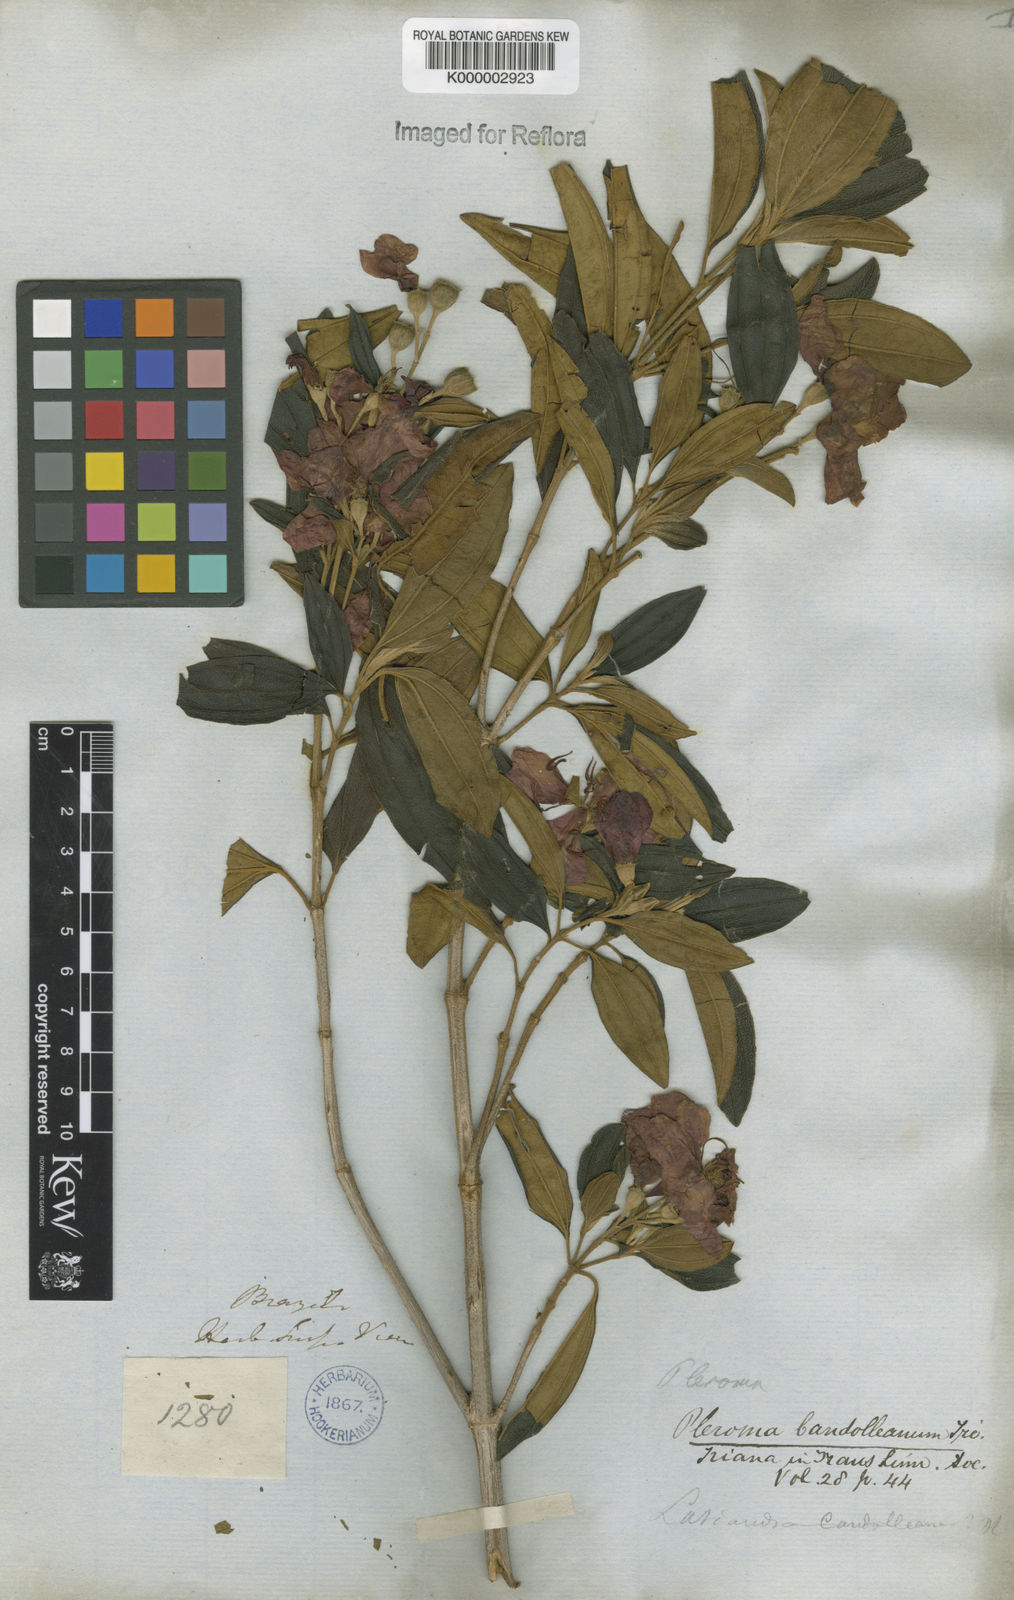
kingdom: Plantae
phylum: Tracheophyta
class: Magnoliopsida
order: Myrtales
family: Melastomataceae
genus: Pleroma
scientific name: Pleroma candolleanum
